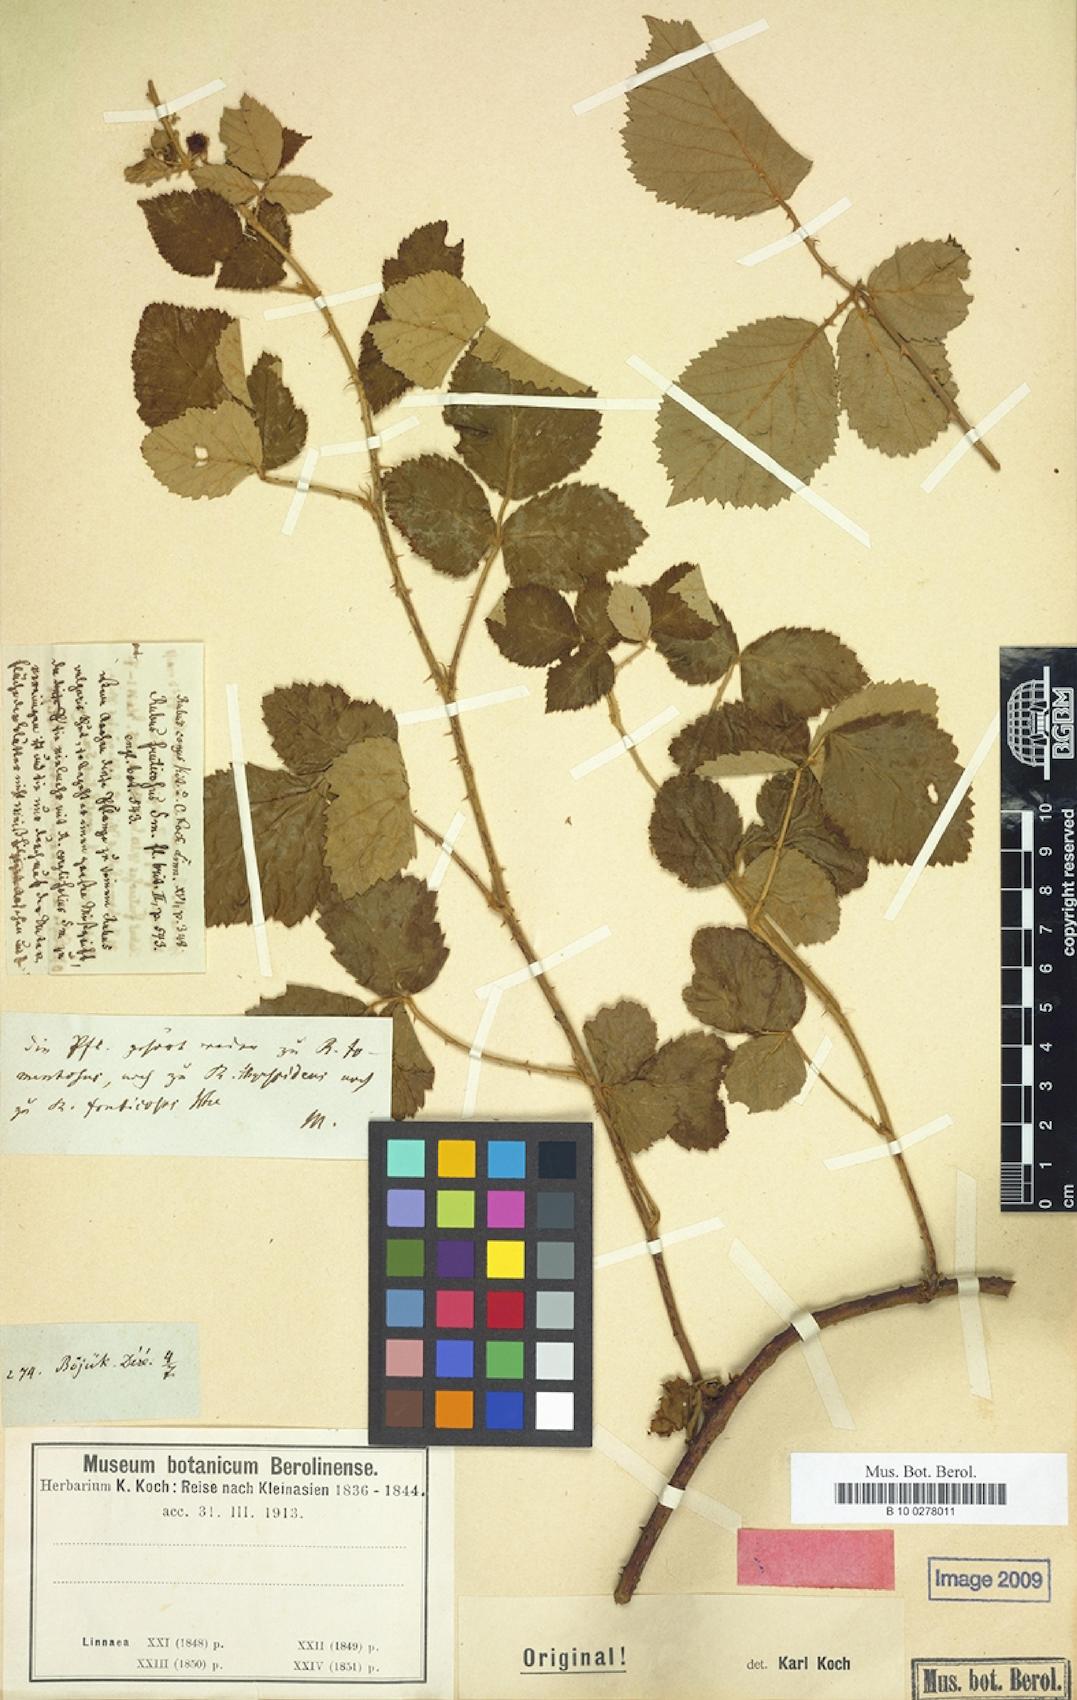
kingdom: Plantae
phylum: Tracheophyta
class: Magnoliopsida
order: Rosales
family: Rosaceae
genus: Rubus
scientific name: Rubus canus
